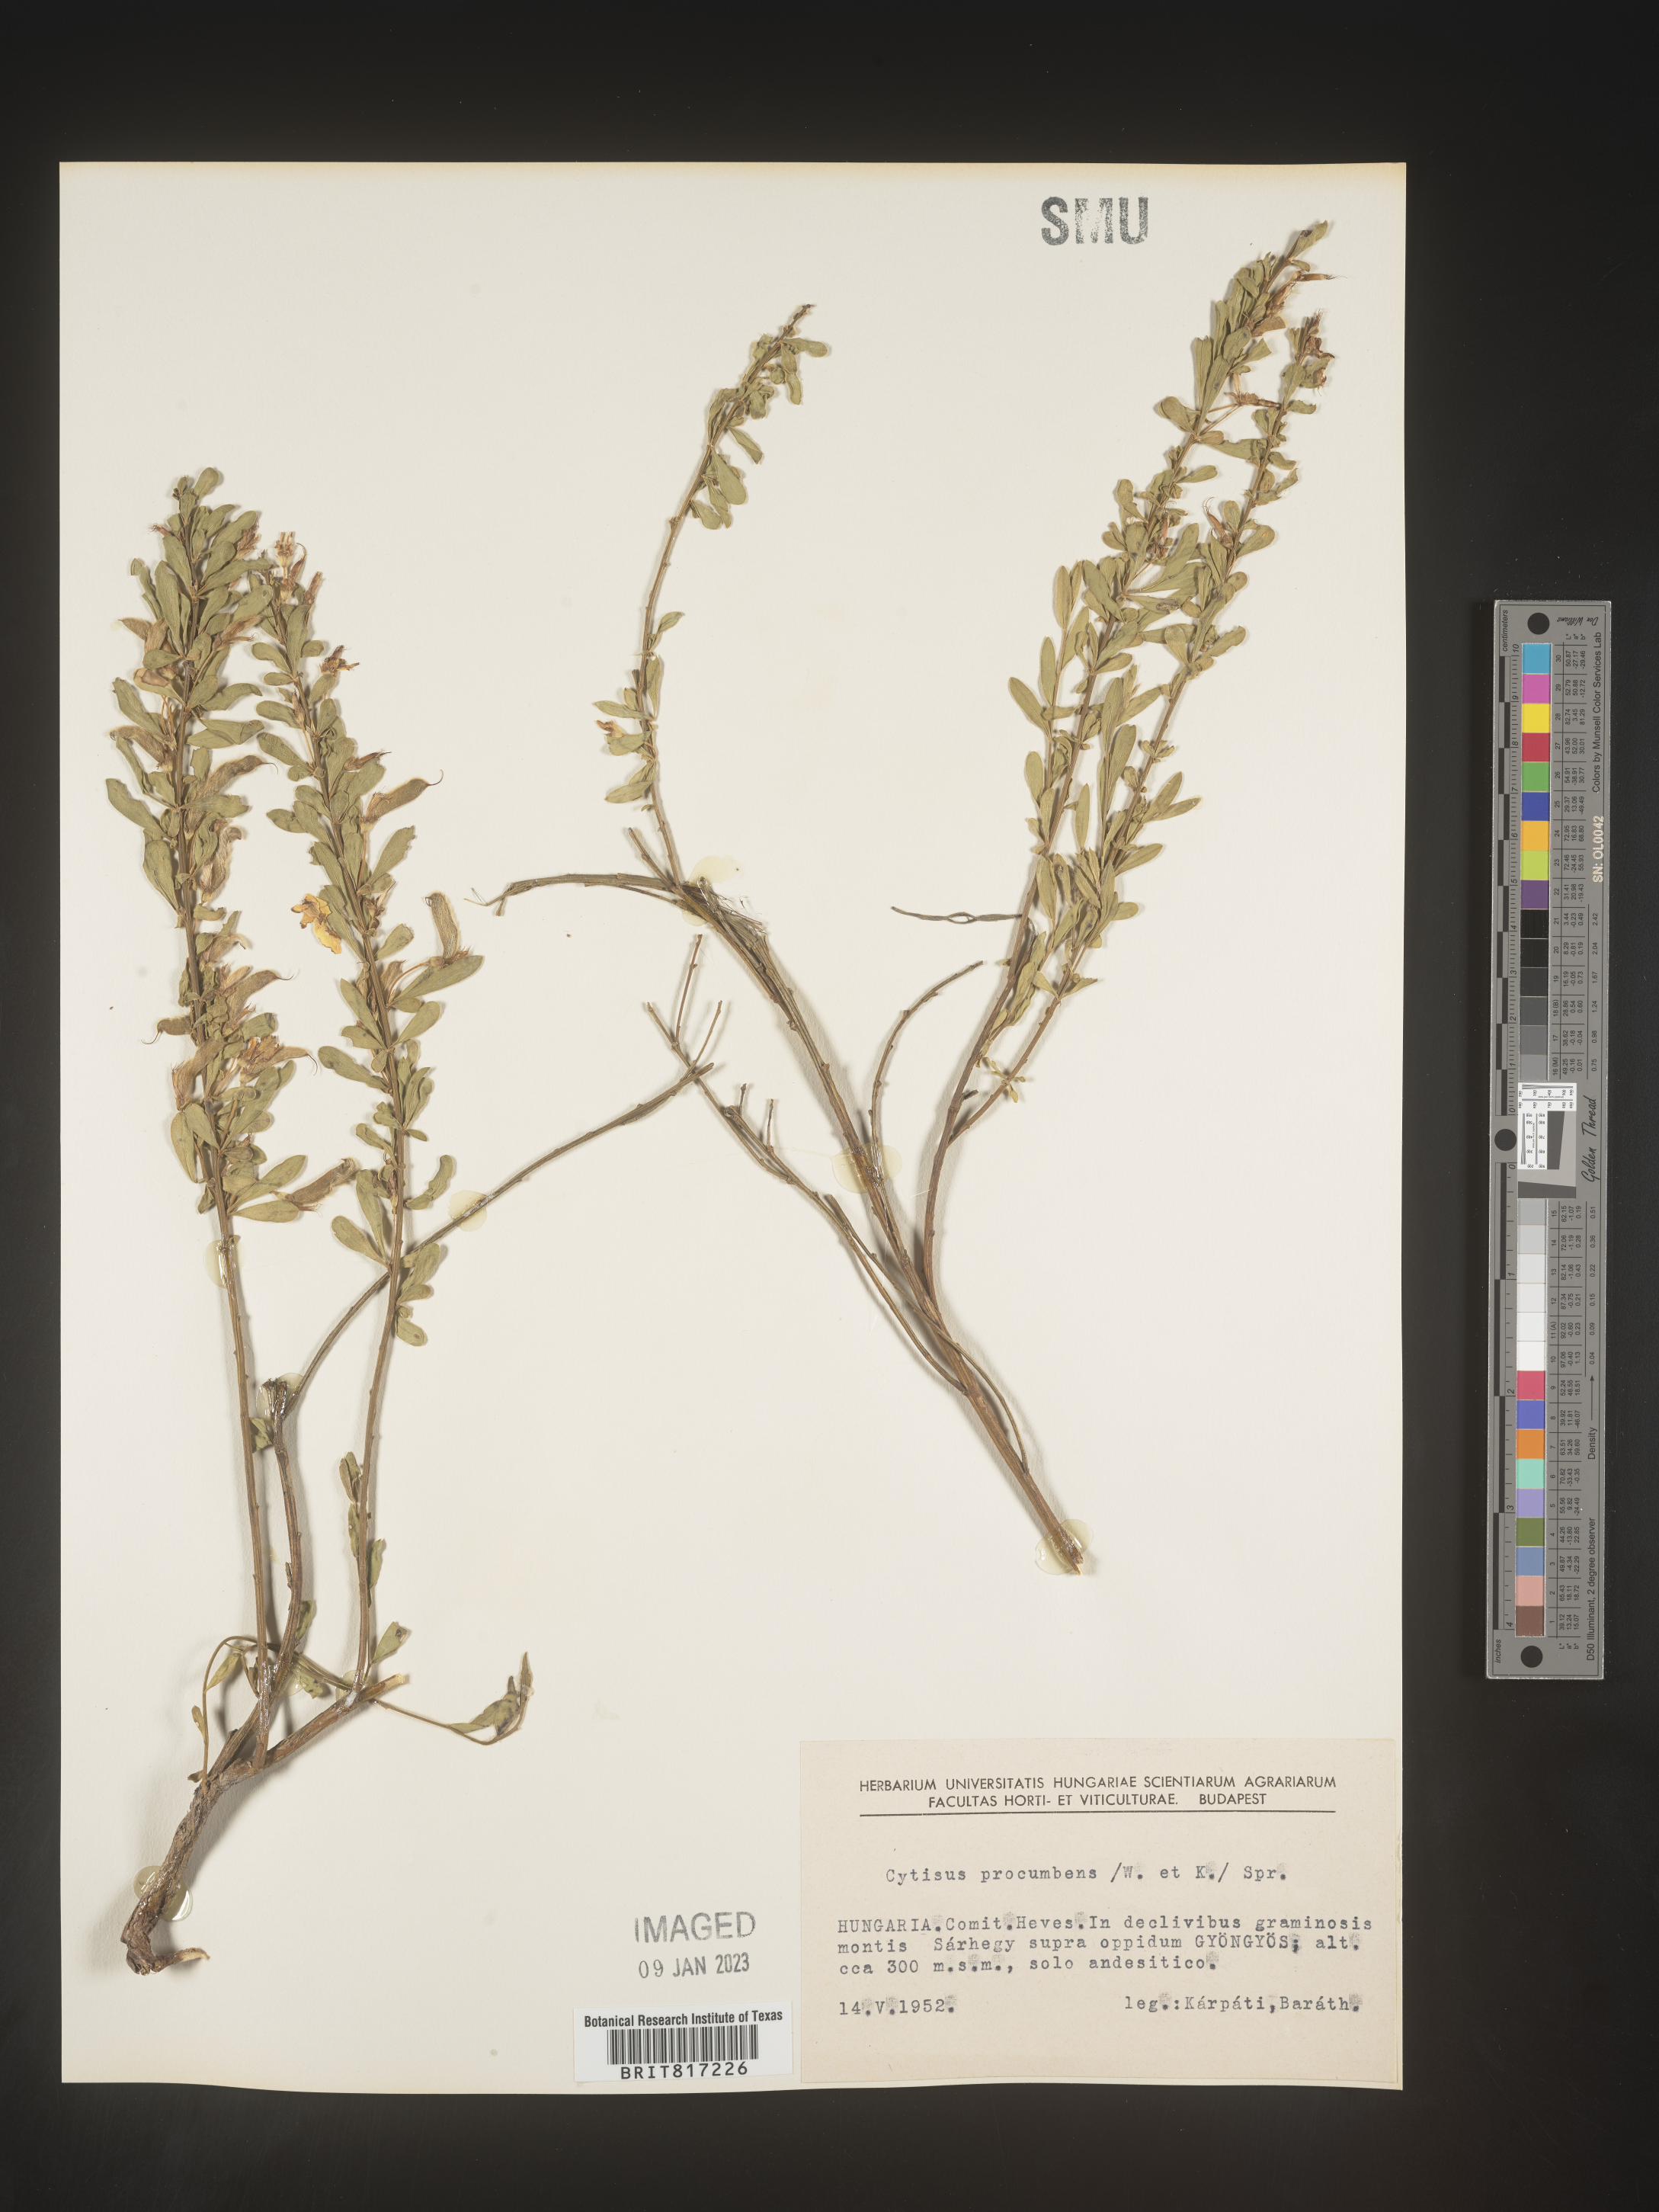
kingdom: Plantae
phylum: Tracheophyta
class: Magnoliopsida
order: Fabales
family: Fabaceae
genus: Cytisus
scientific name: Cytisus
